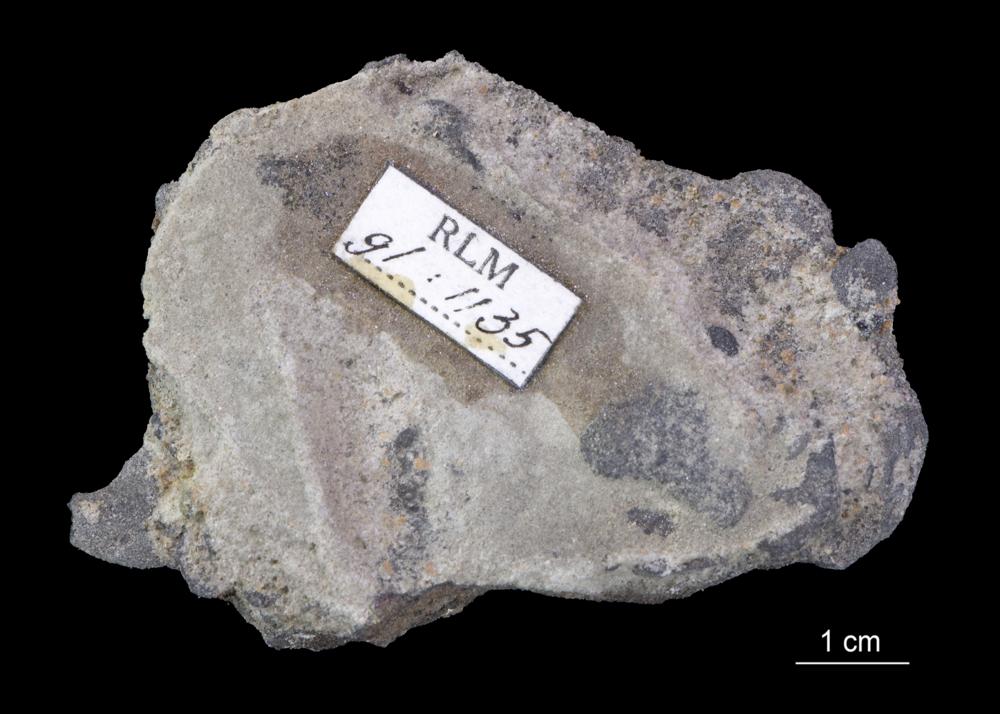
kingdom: Animalia
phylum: Brachiopoda
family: Paterinidae
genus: Mickwitzia
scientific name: Mickwitzia
